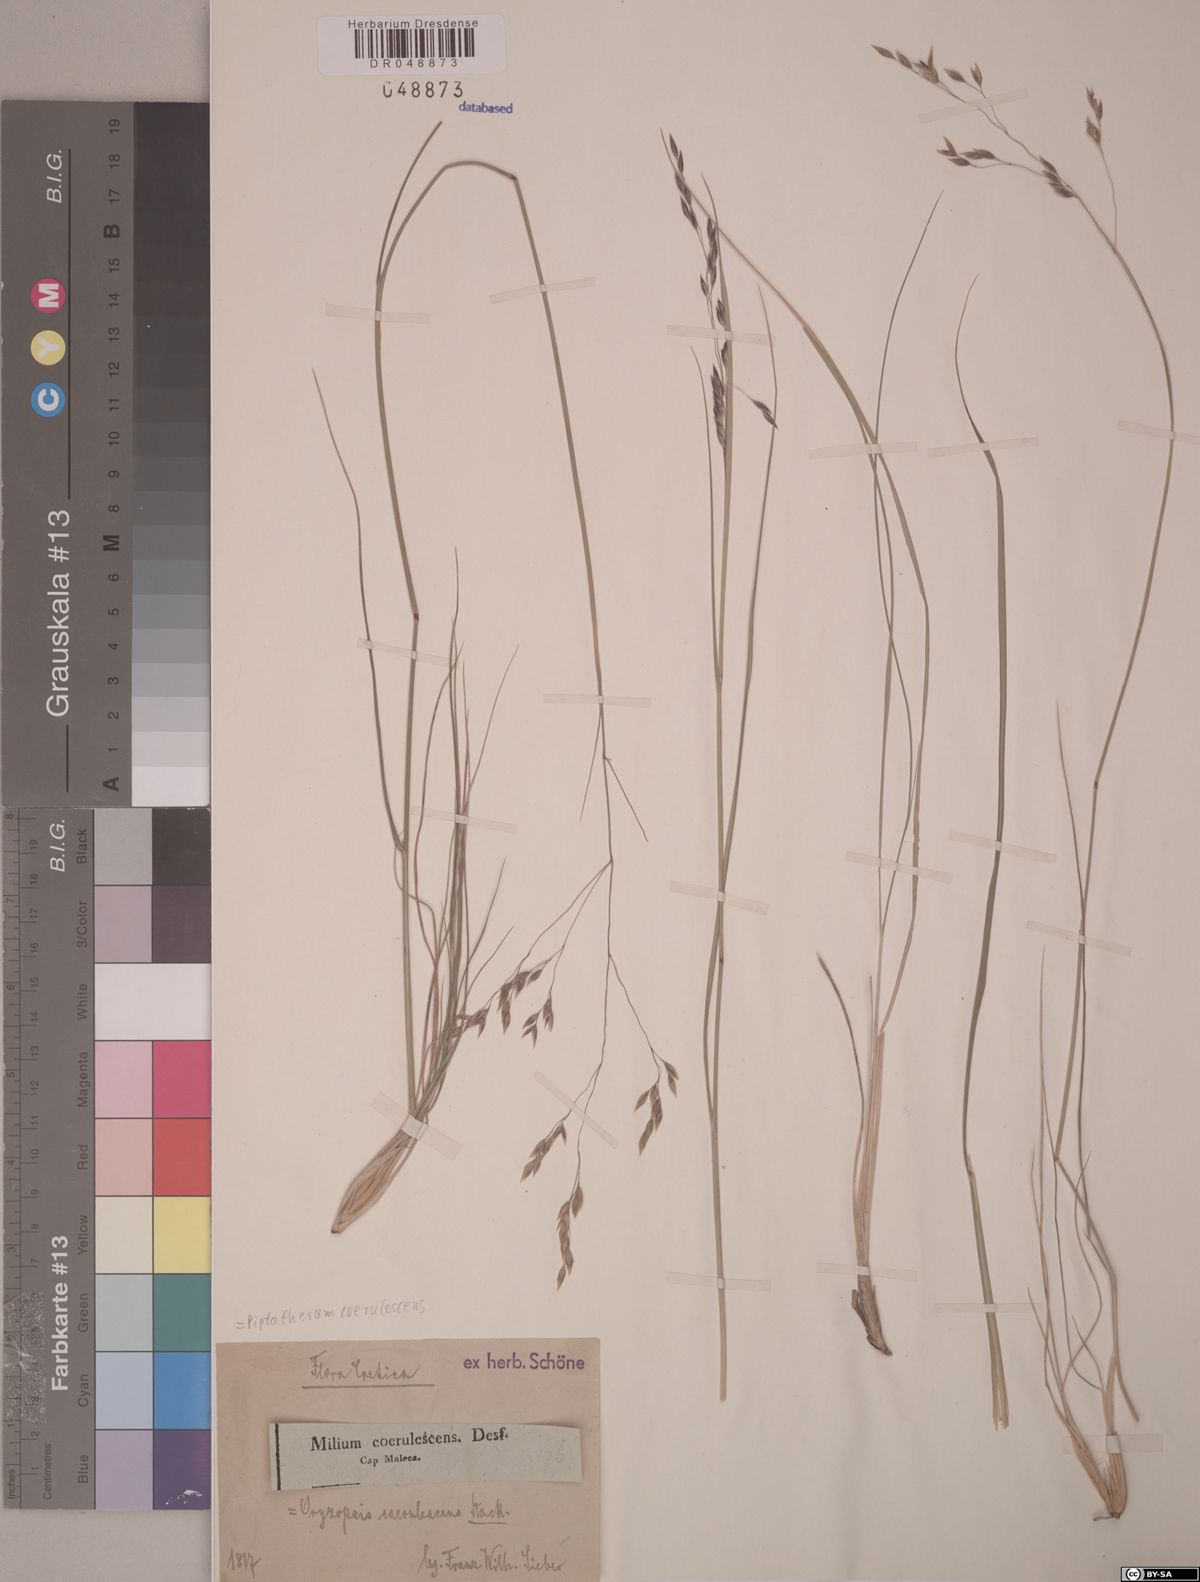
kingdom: Plantae
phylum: Tracheophyta
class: Liliopsida
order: Poales
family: Poaceae
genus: Piptatherum
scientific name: Piptatherum coerulescens
